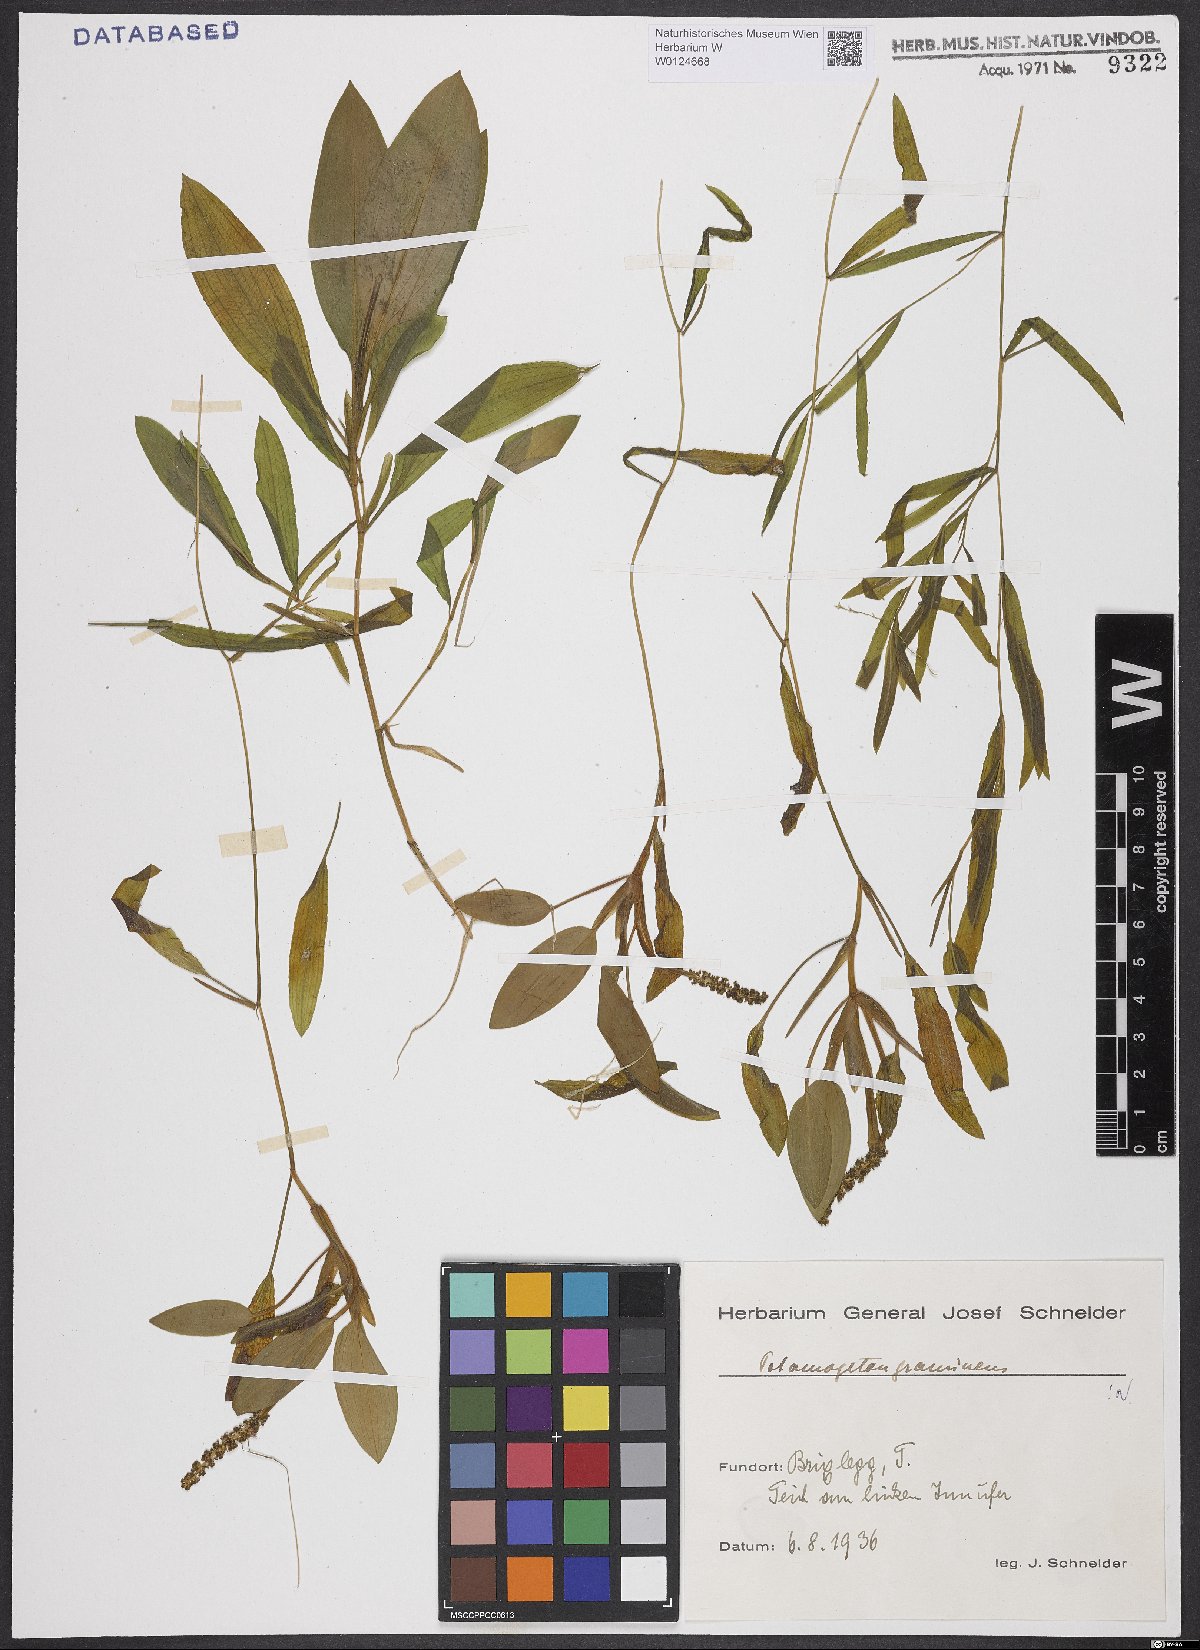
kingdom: Plantae
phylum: Tracheophyta
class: Liliopsida
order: Alismatales
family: Potamogetonaceae
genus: Potamogeton
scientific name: Potamogeton gramineus
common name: Various-leaved pondweed
